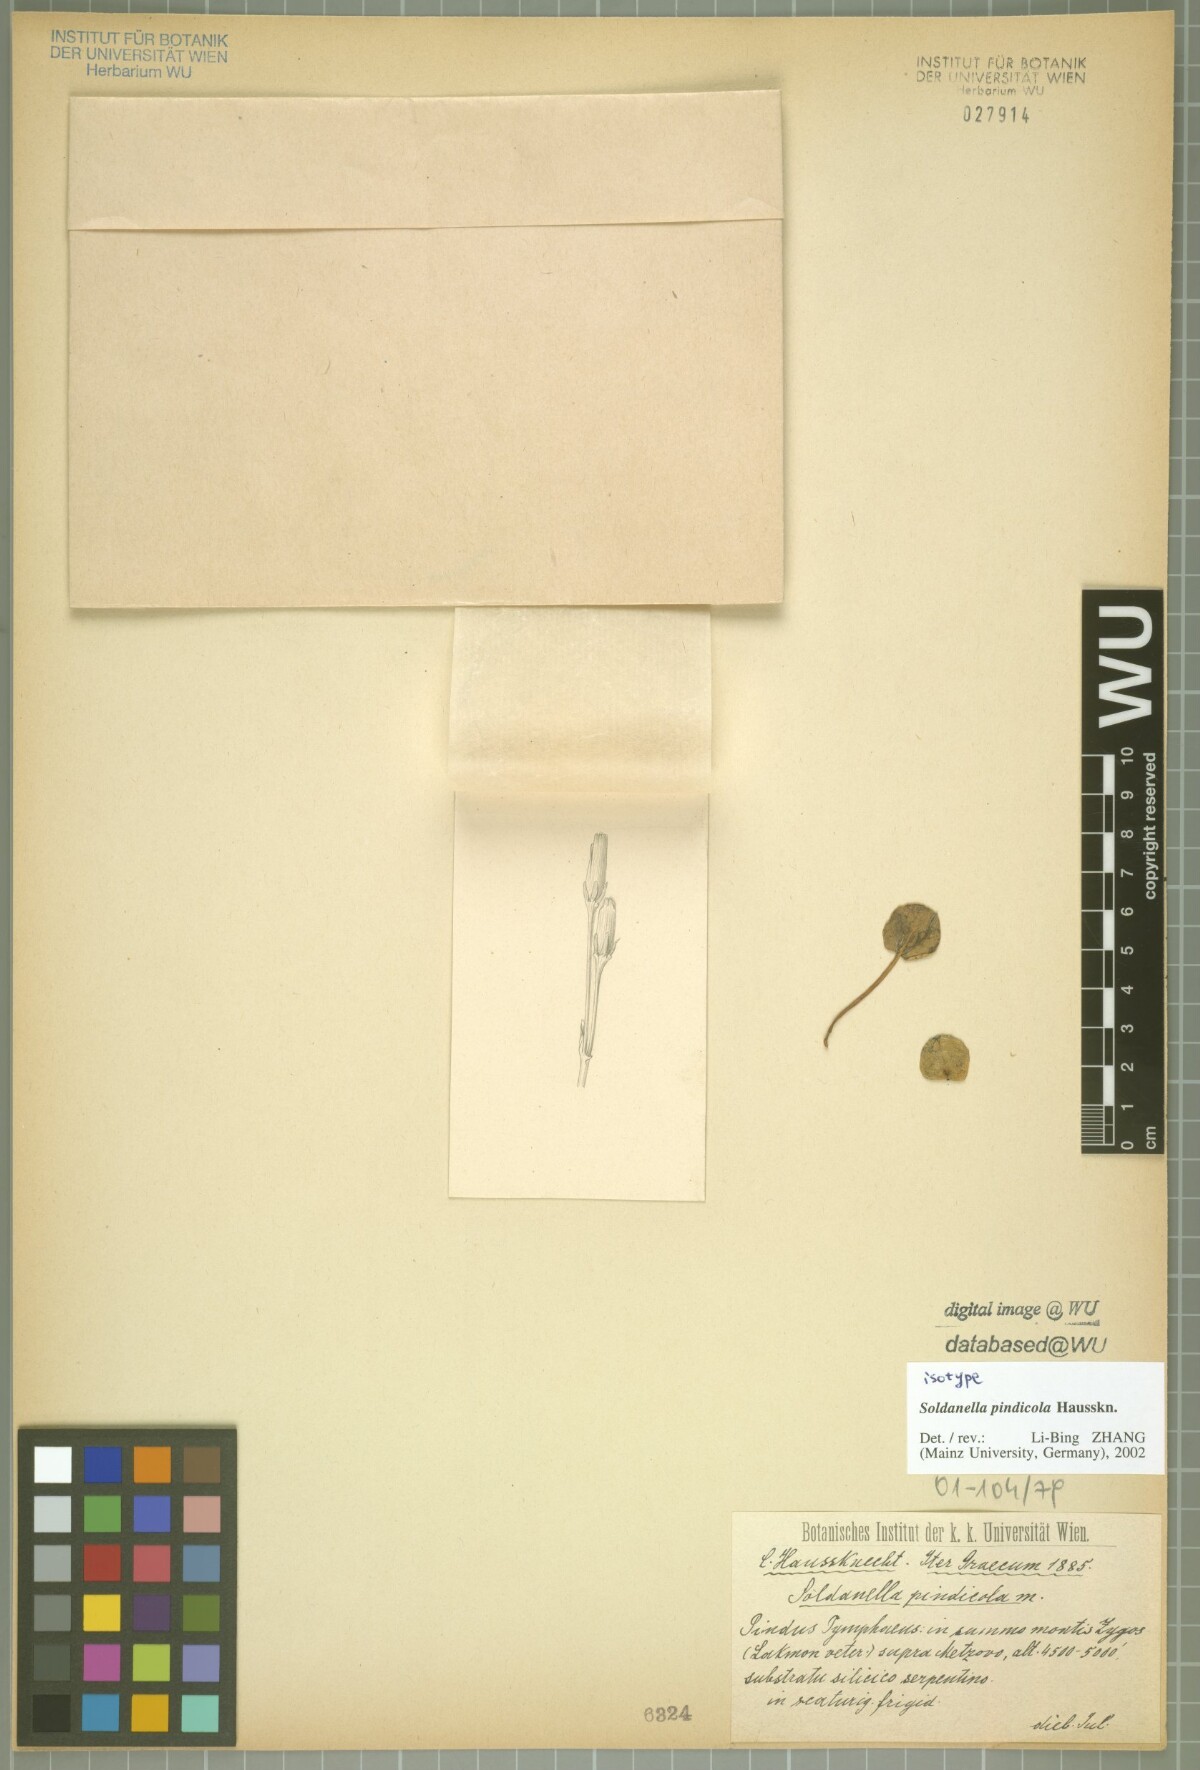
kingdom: Plantae
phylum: Tracheophyta
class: Magnoliopsida
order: Ericales
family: Primulaceae
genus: Soldanella
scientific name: Soldanella pindicola
